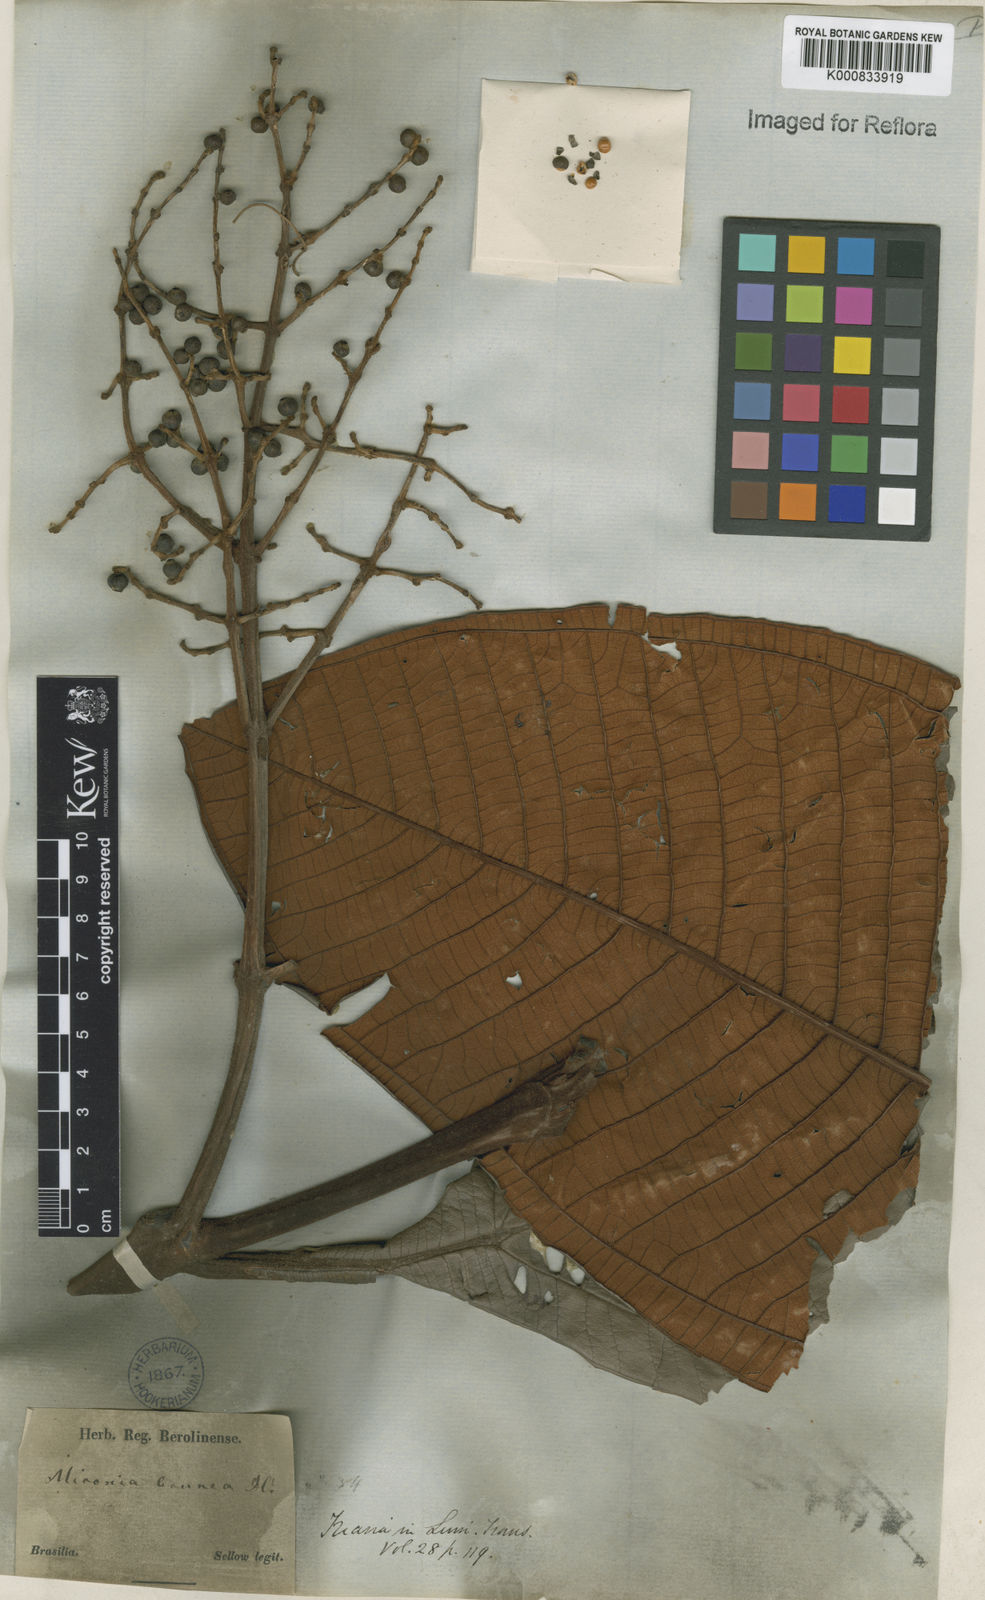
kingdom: Plantae
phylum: Tracheophyta
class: Magnoliopsida
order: Myrtales
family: Melastomataceae
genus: Miconia
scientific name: Miconia brunnea
